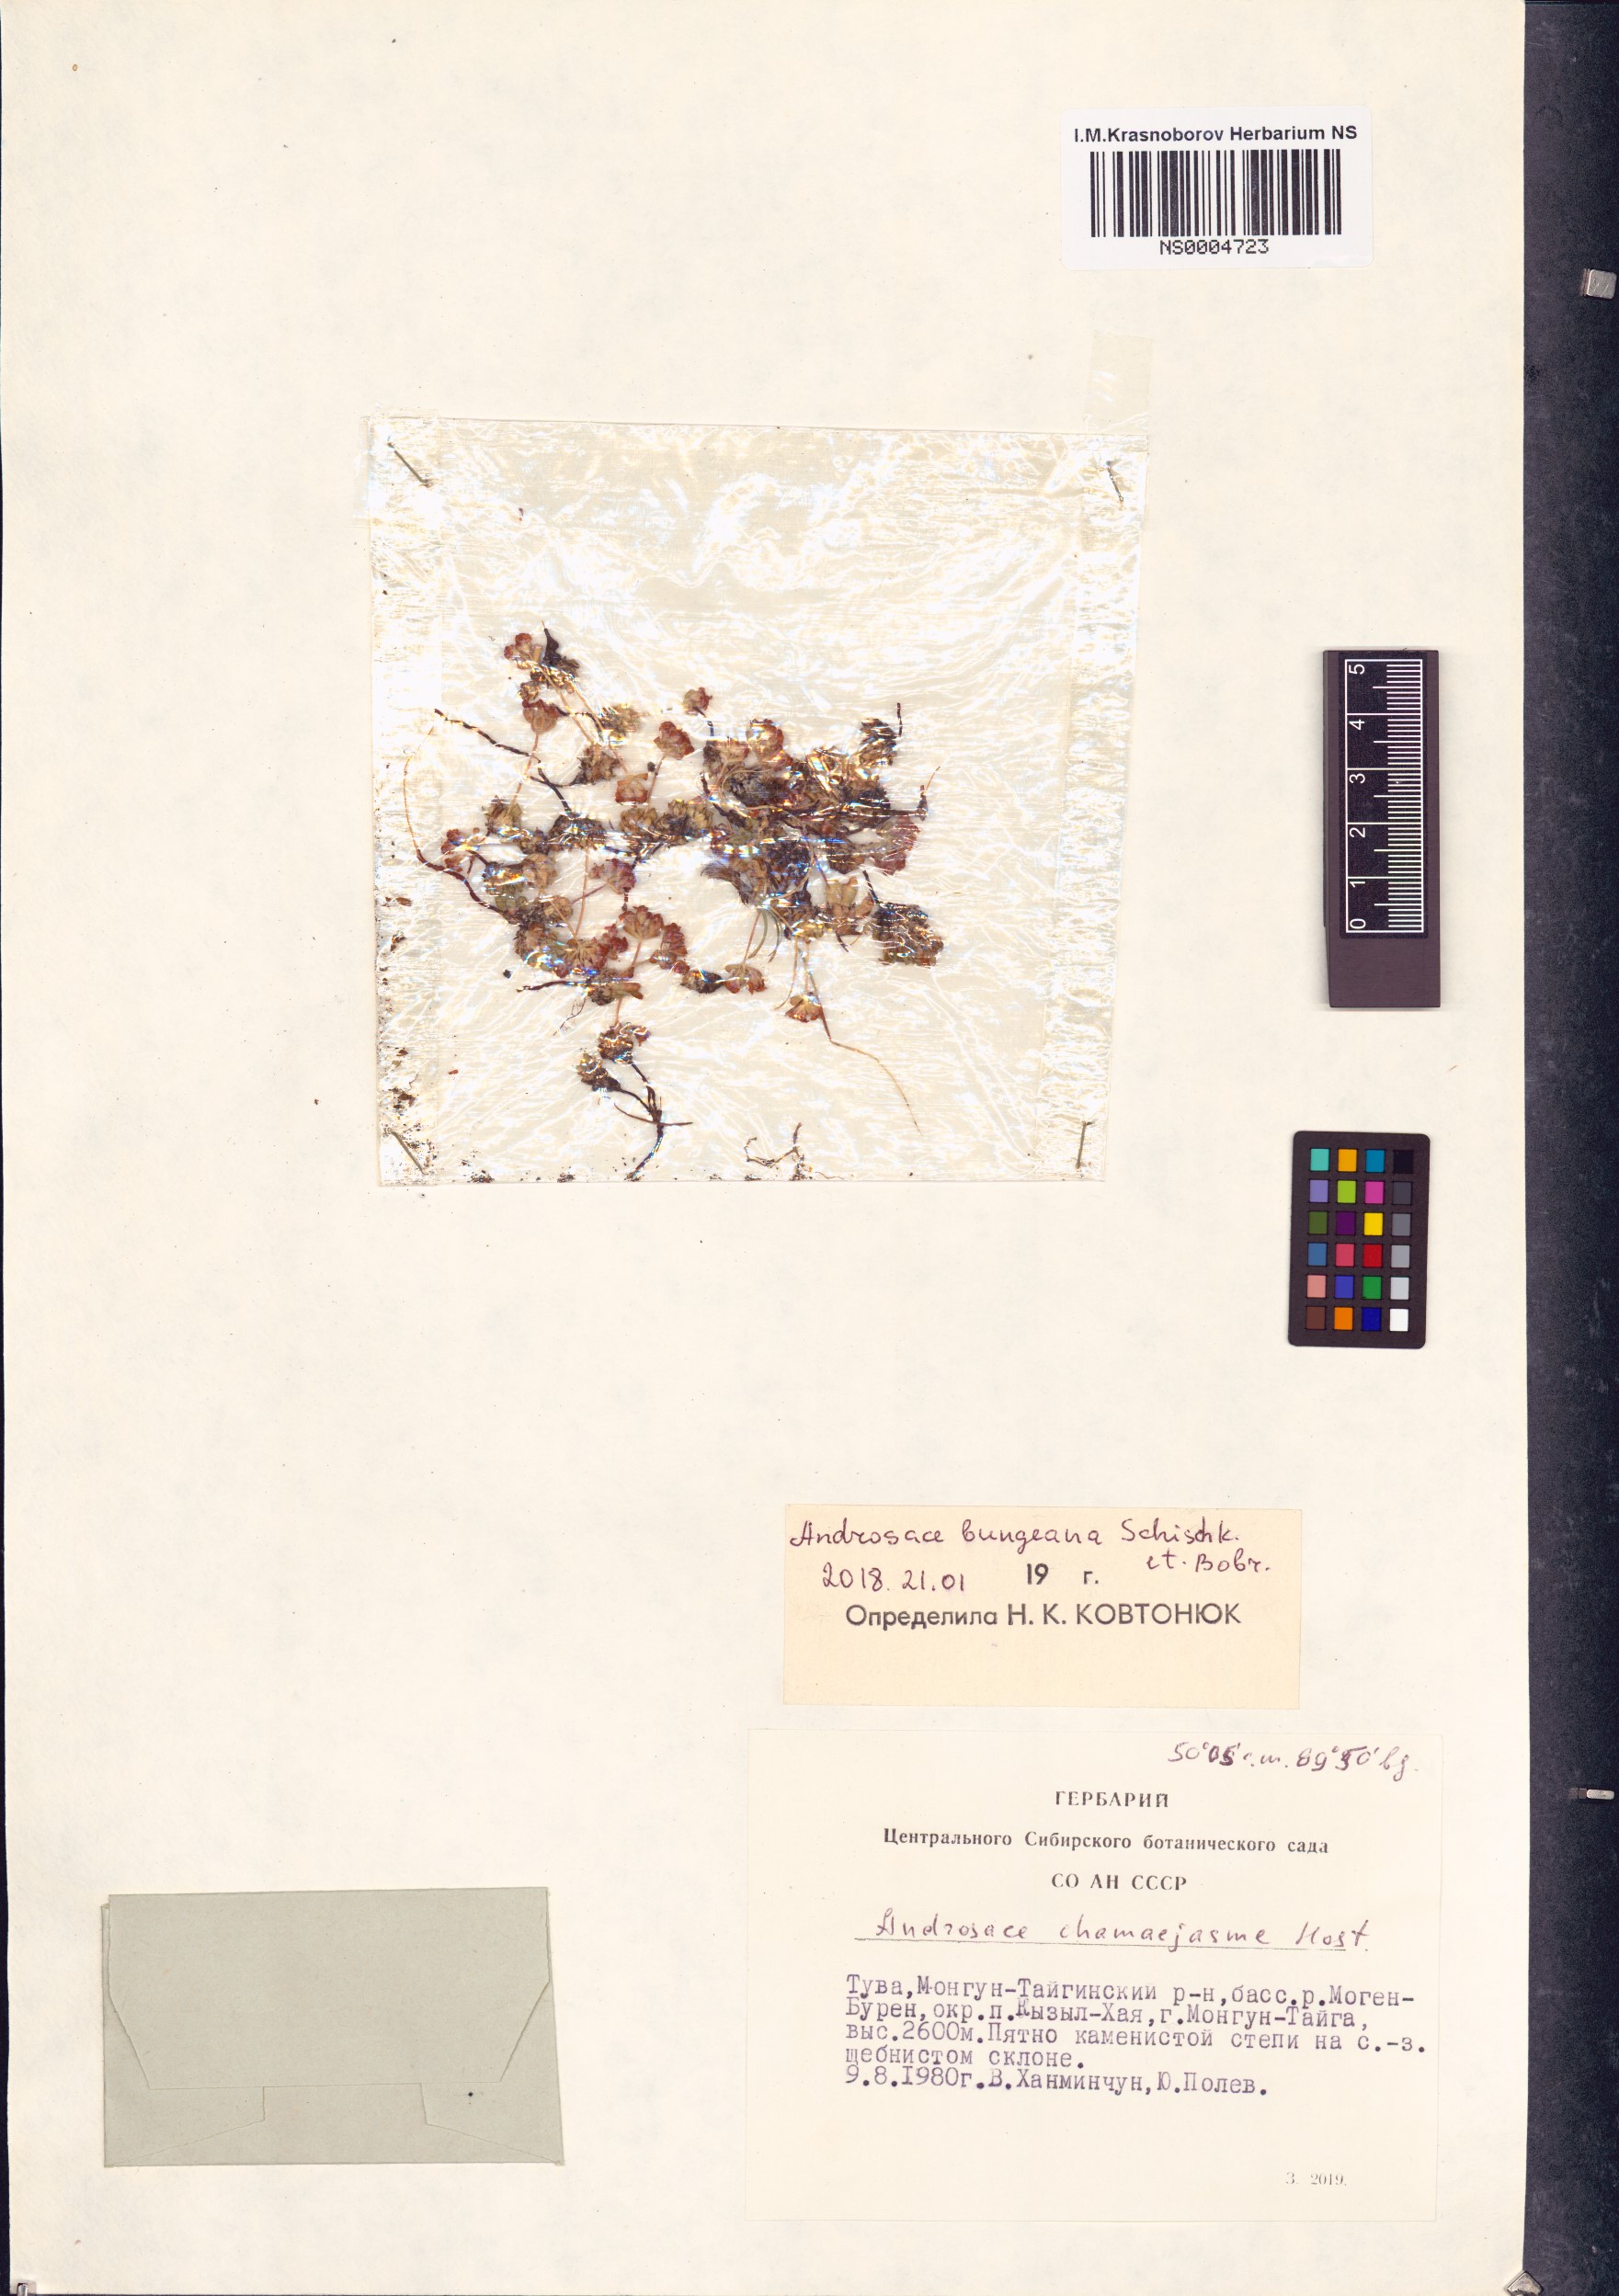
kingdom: Plantae
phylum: Tracheophyta
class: Magnoliopsida
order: Ericales
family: Primulaceae
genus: Androsace
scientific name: Androsace bungeana
